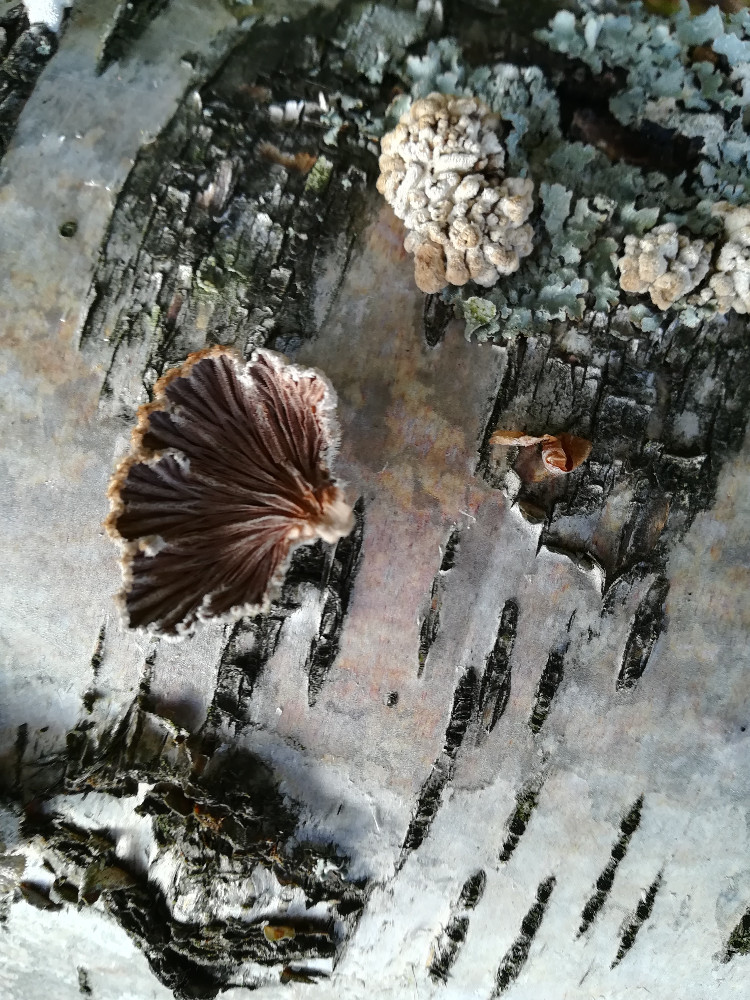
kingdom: Fungi
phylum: Basidiomycota
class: Agaricomycetes
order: Agaricales
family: Schizophyllaceae
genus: Schizophyllum
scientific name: Schizophyllum commune
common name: kløvblad
